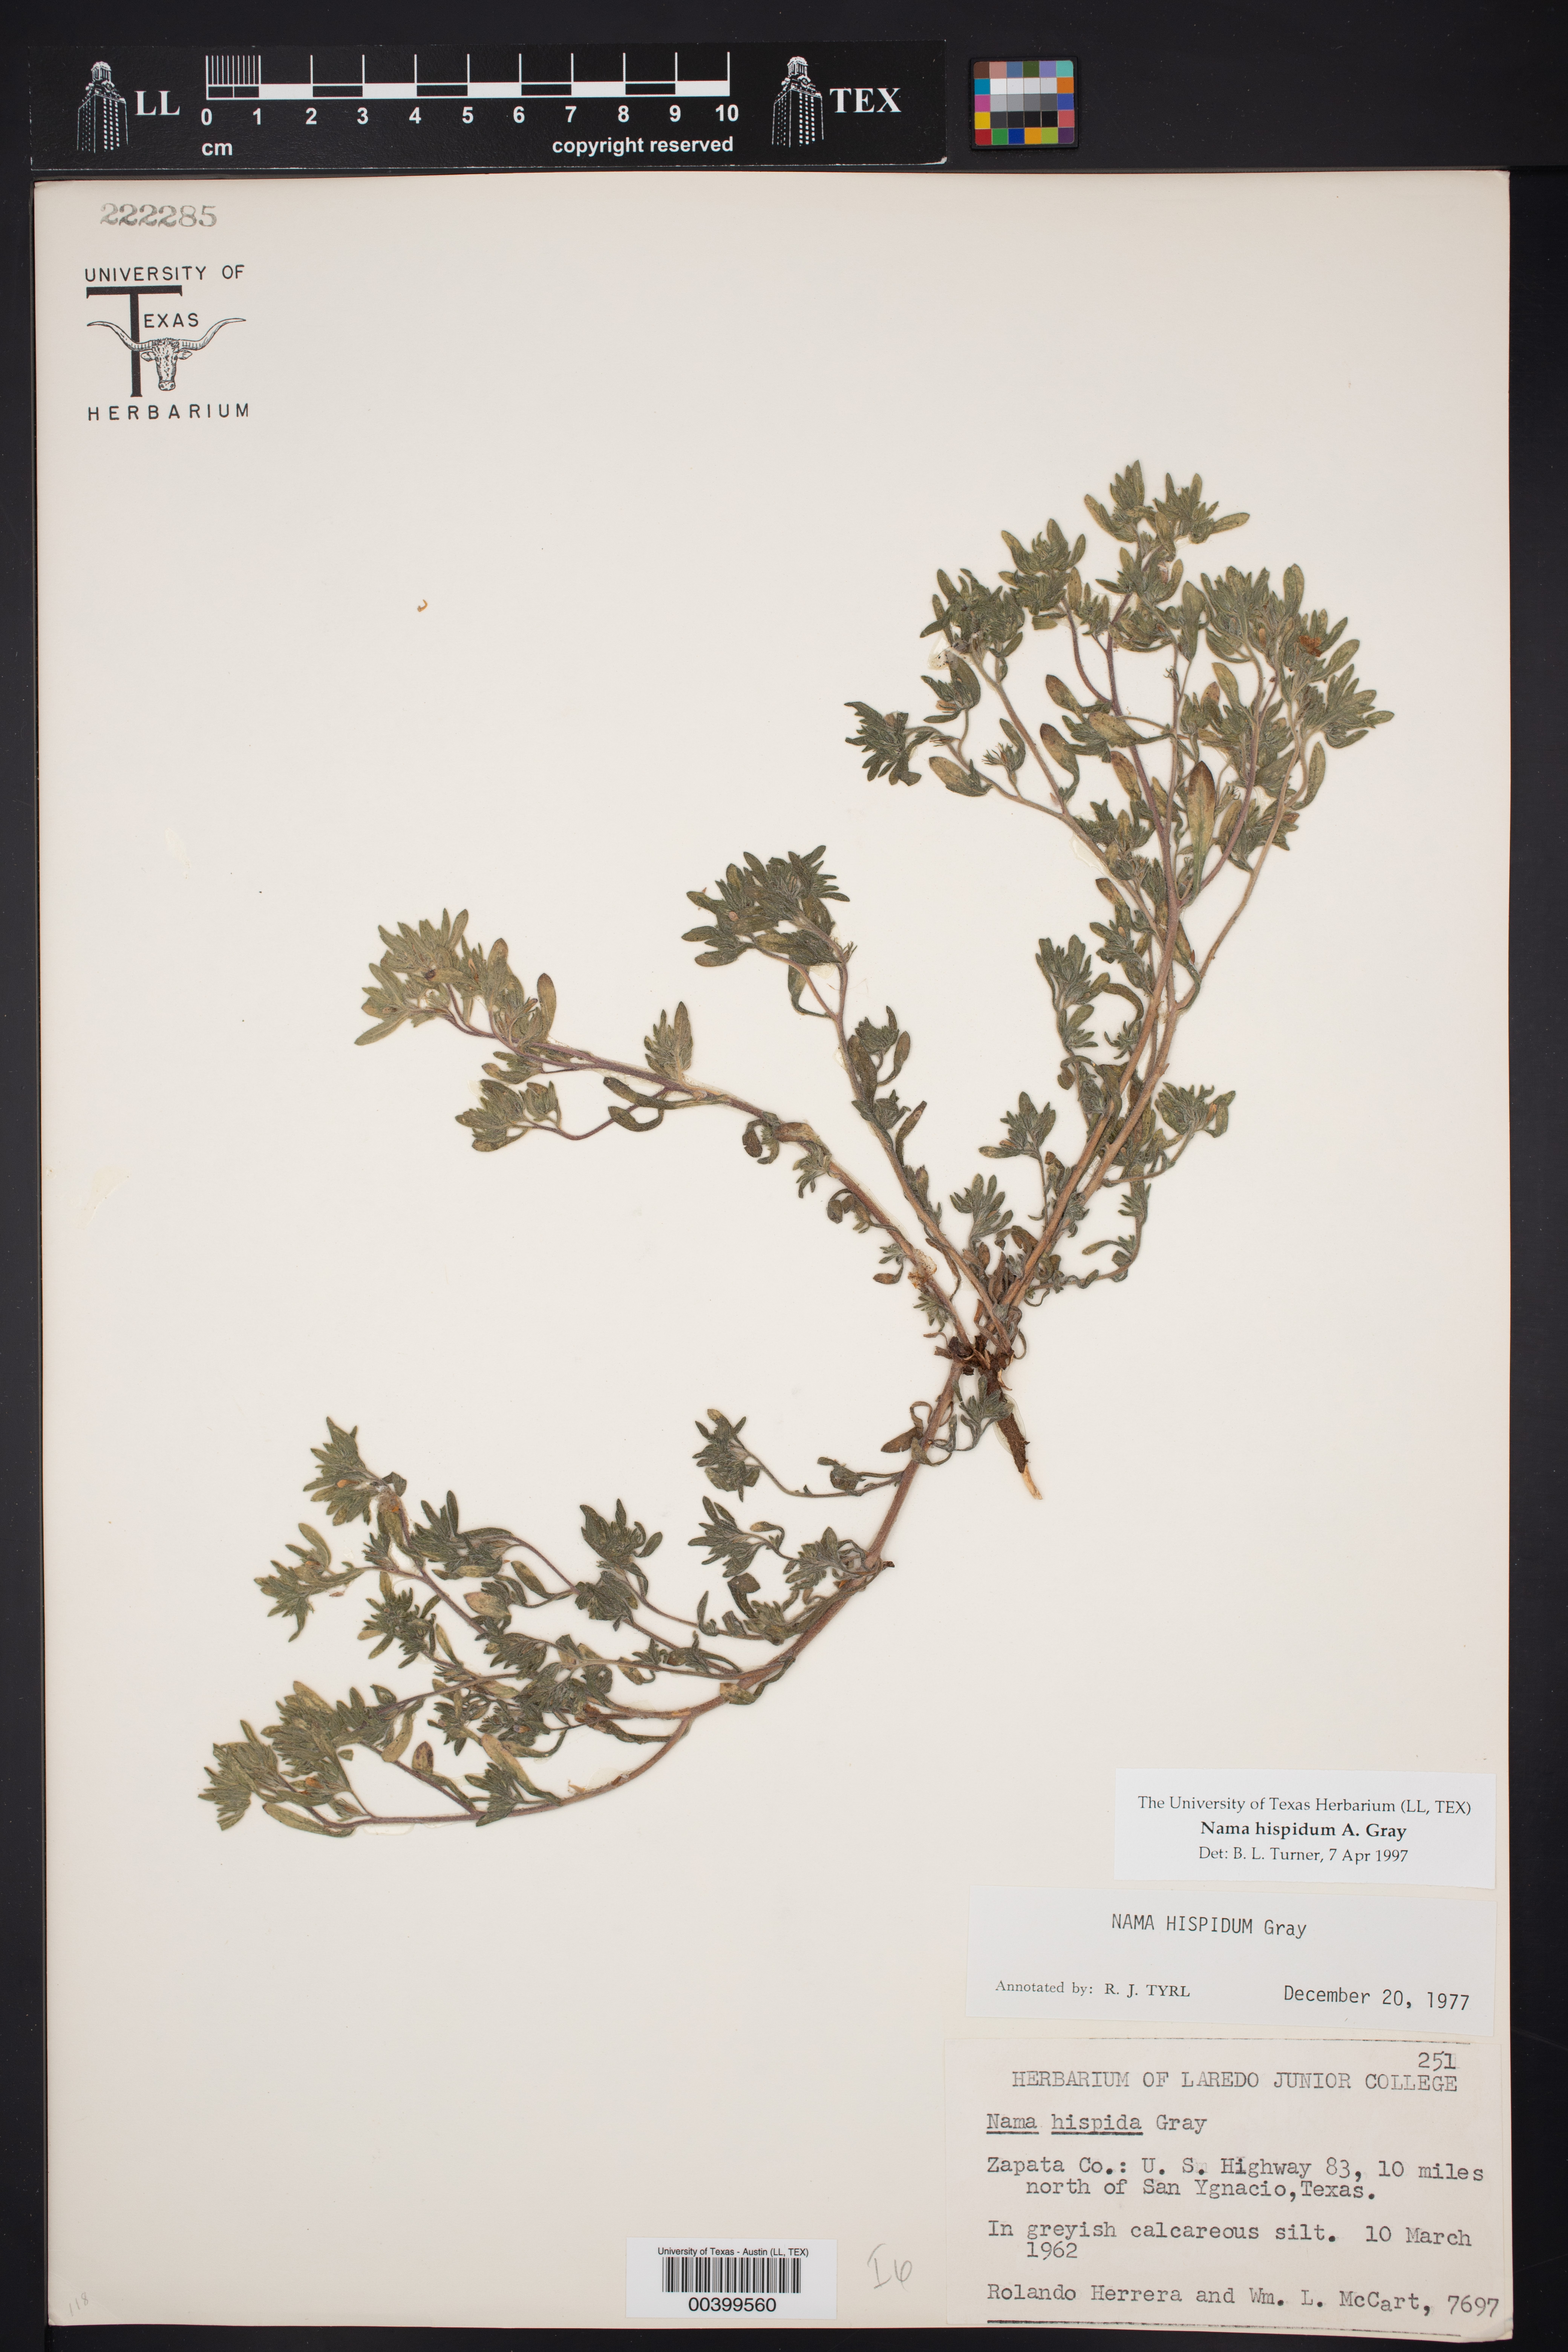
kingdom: Plantae
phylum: Tracheophyta
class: Magnoliopsida
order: Boraginales
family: Namaceae
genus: Nama
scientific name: Nama hispida
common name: Bristly nama
